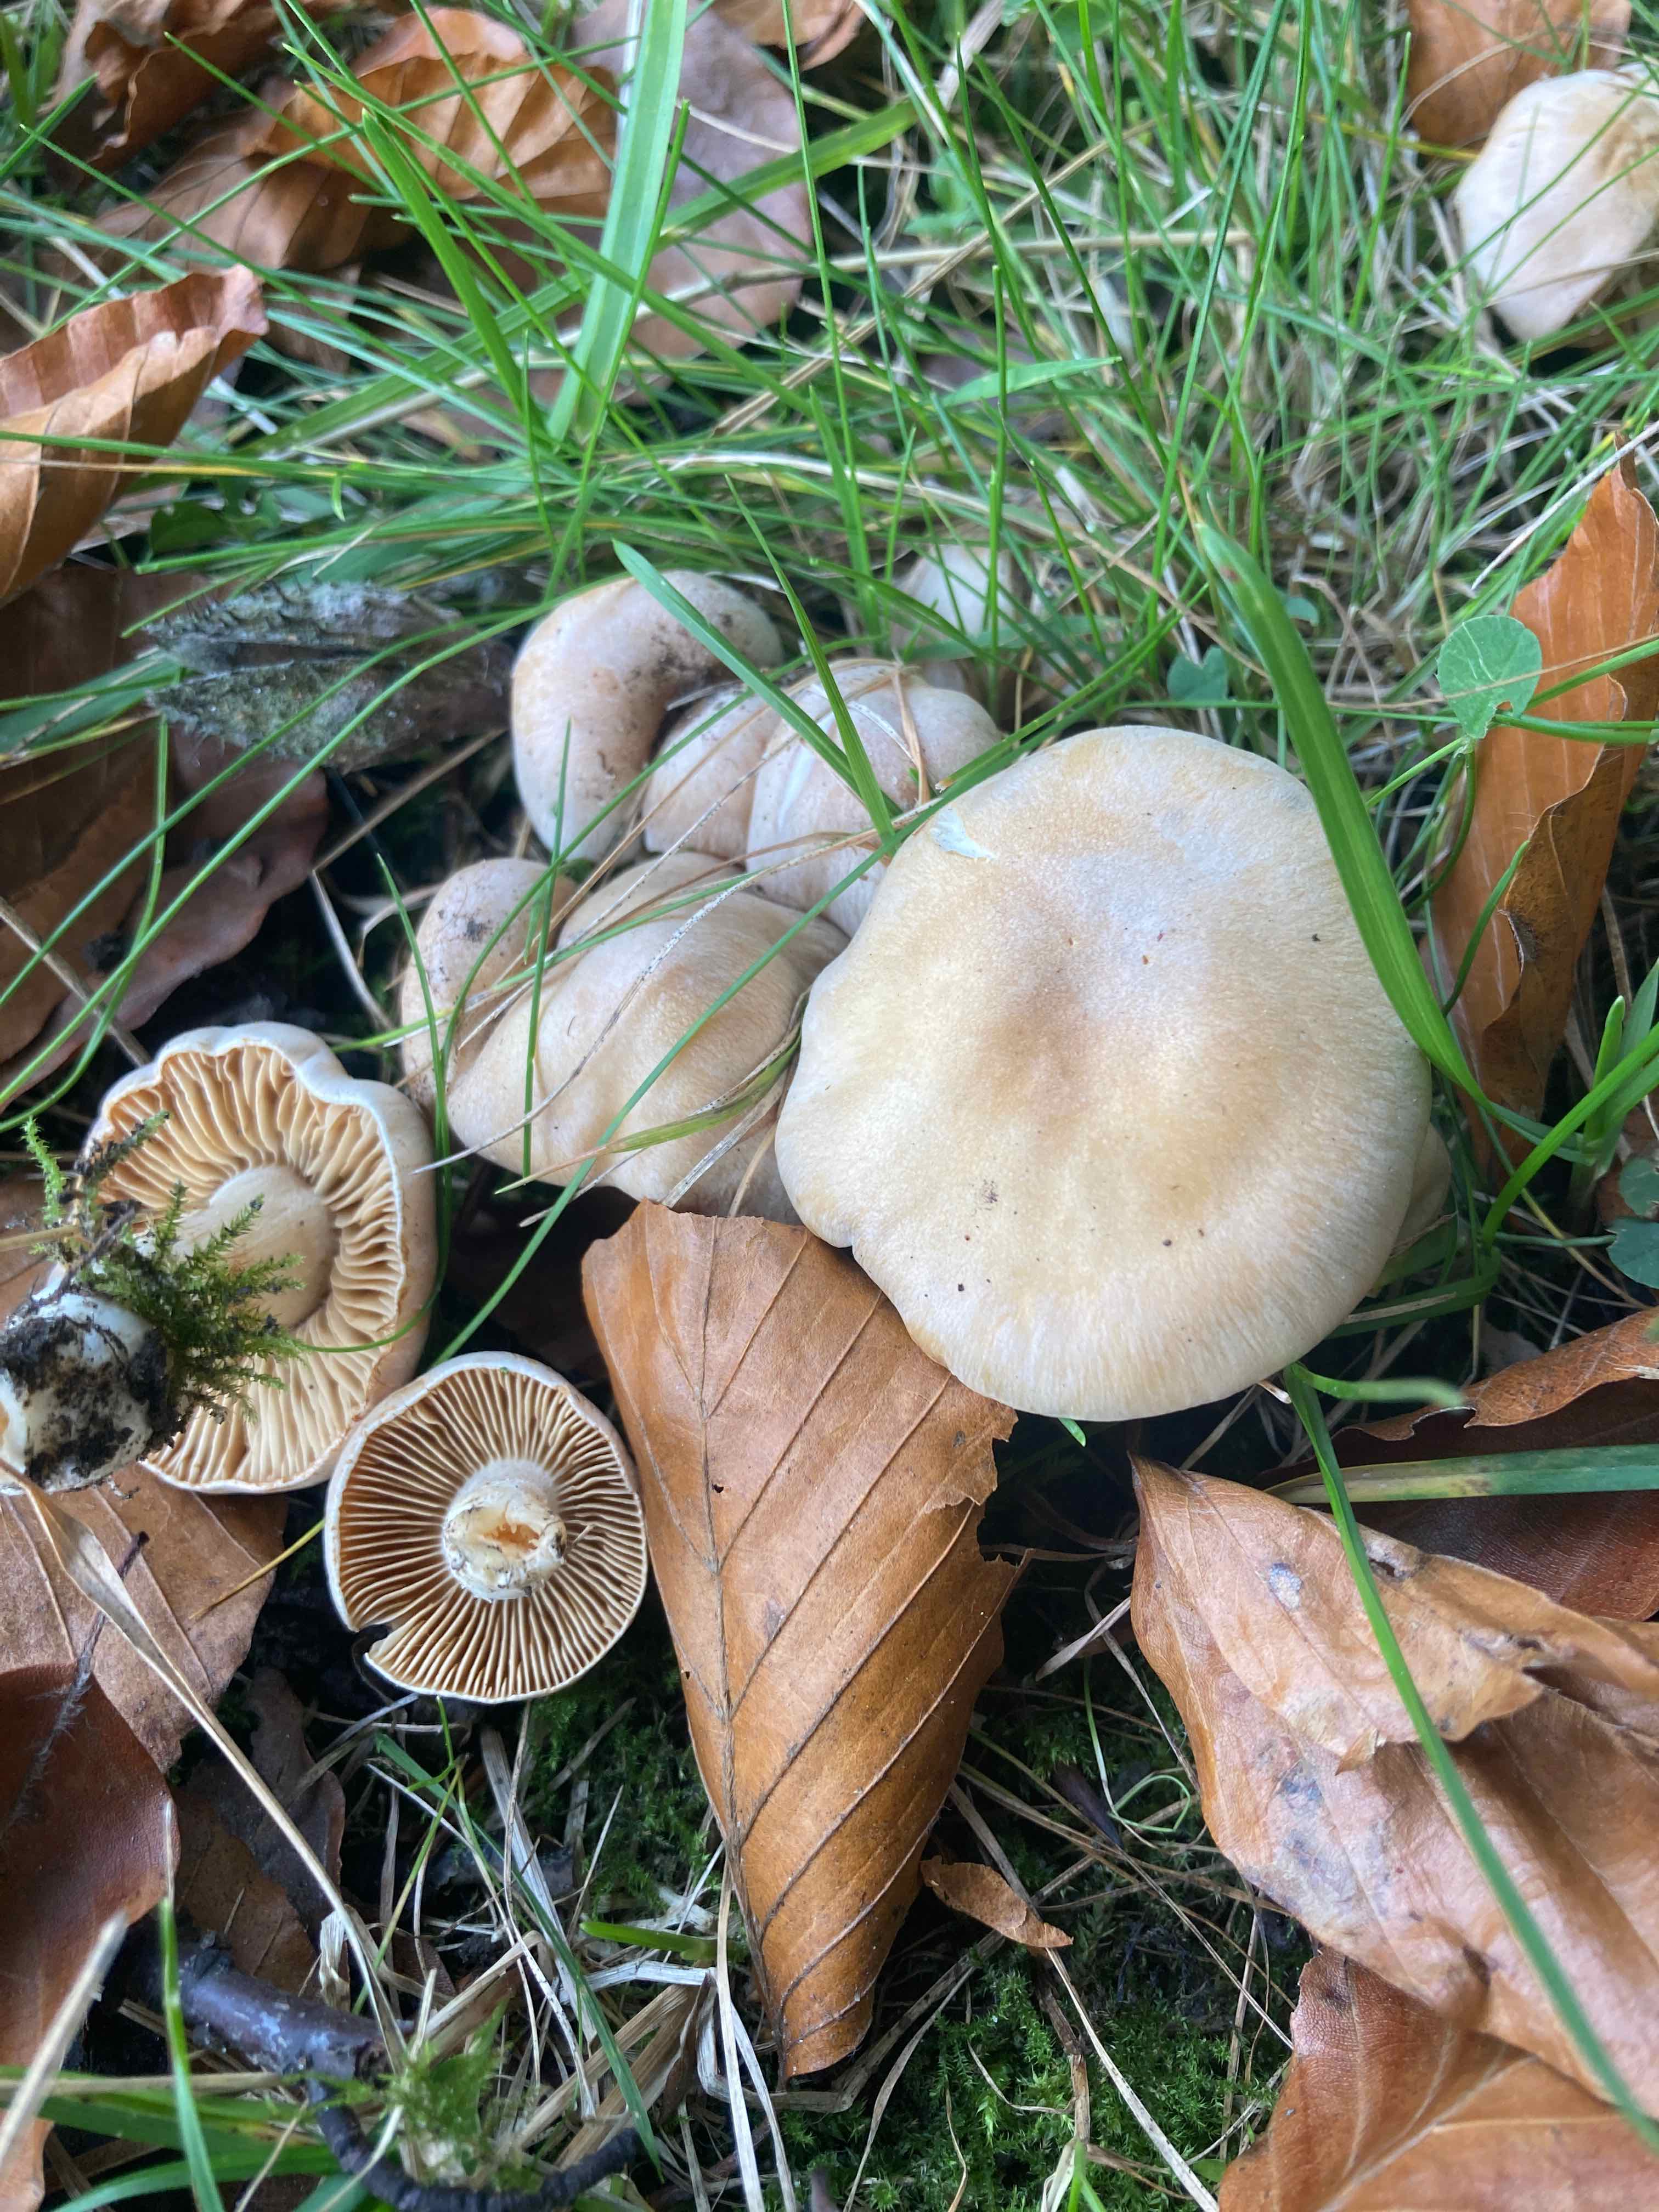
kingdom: Fungi
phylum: Basidiomycota
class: Agaricomycetes
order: Agaricales
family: Cortinariaceae
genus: Thaxterogaster
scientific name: Thaxterogaster leucoluteolus
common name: isabella slørhat
